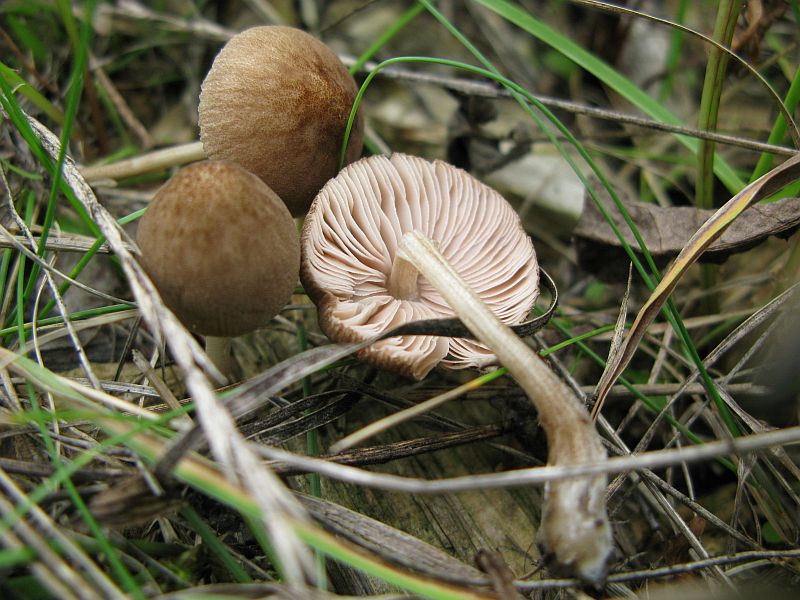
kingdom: Fungi
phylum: Basidiomycota
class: Agaricomycetes
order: Agaricales
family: Pluteaceae
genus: Pluteus
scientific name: Pluteus podospileus
